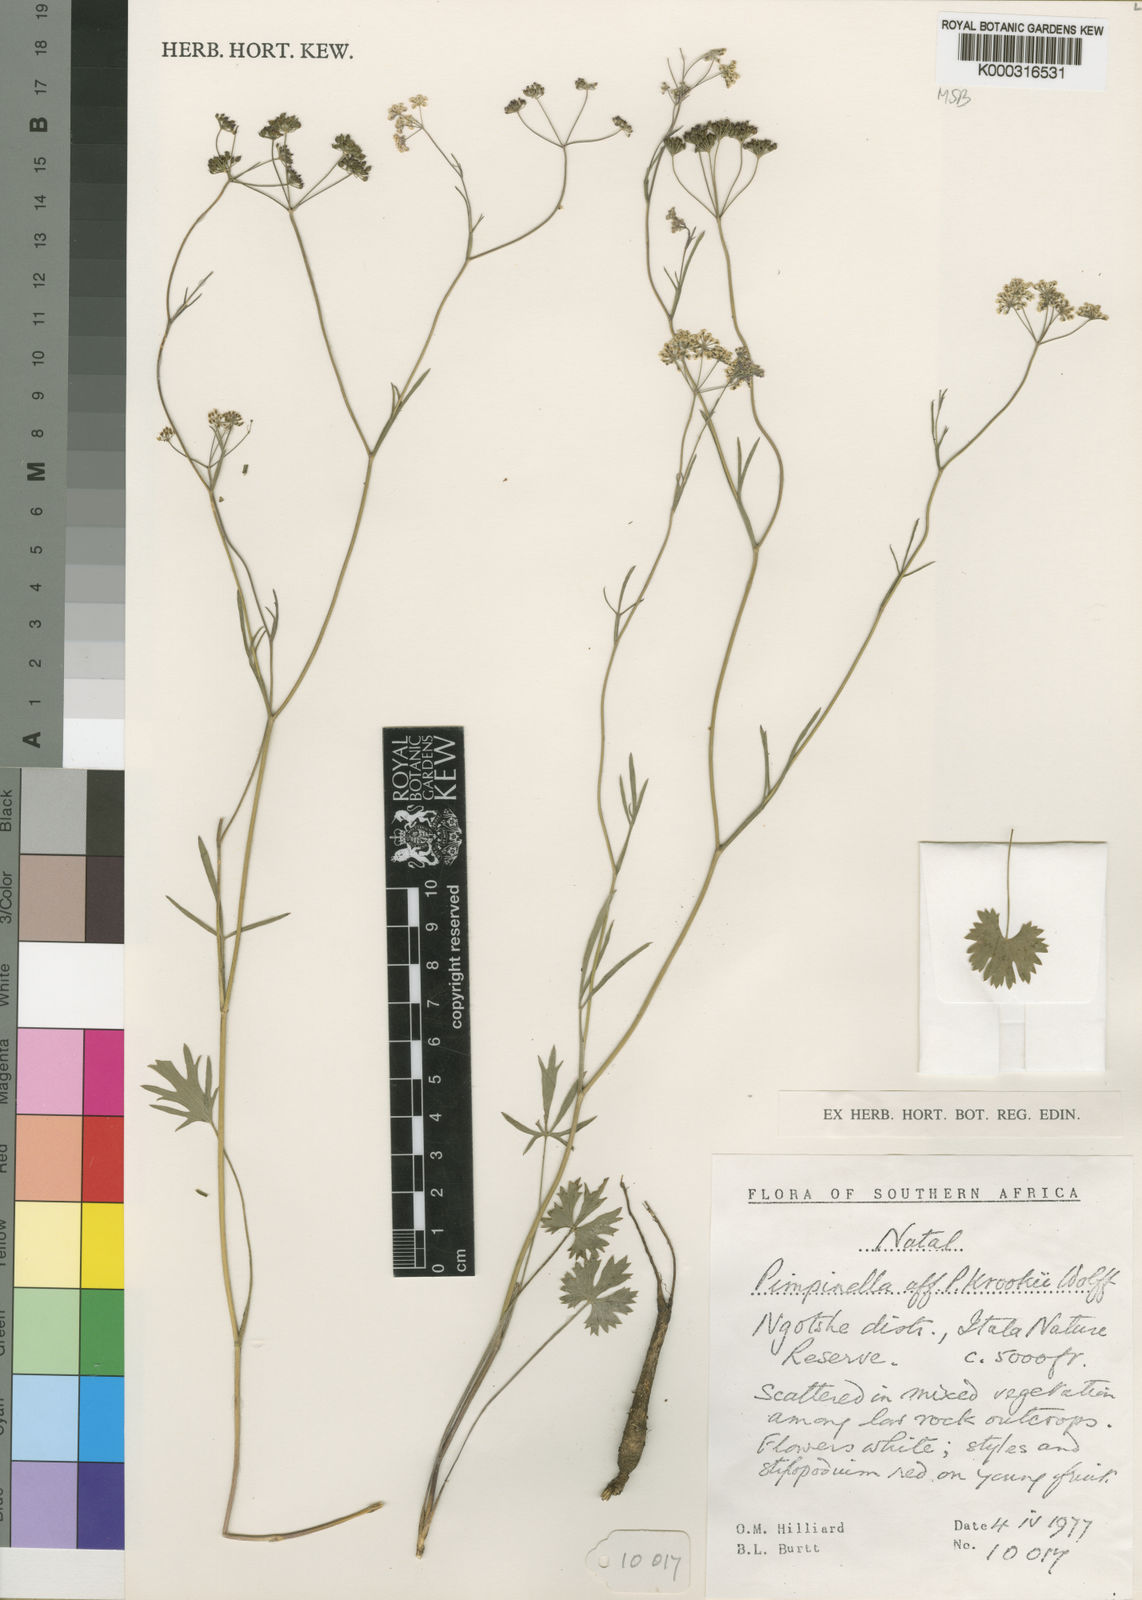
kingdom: Plantae
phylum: Tracheophyta
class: Magnoliopsida
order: Apiales
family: Apiaceae
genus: Pimpinella
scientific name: Pimpinella caffra
